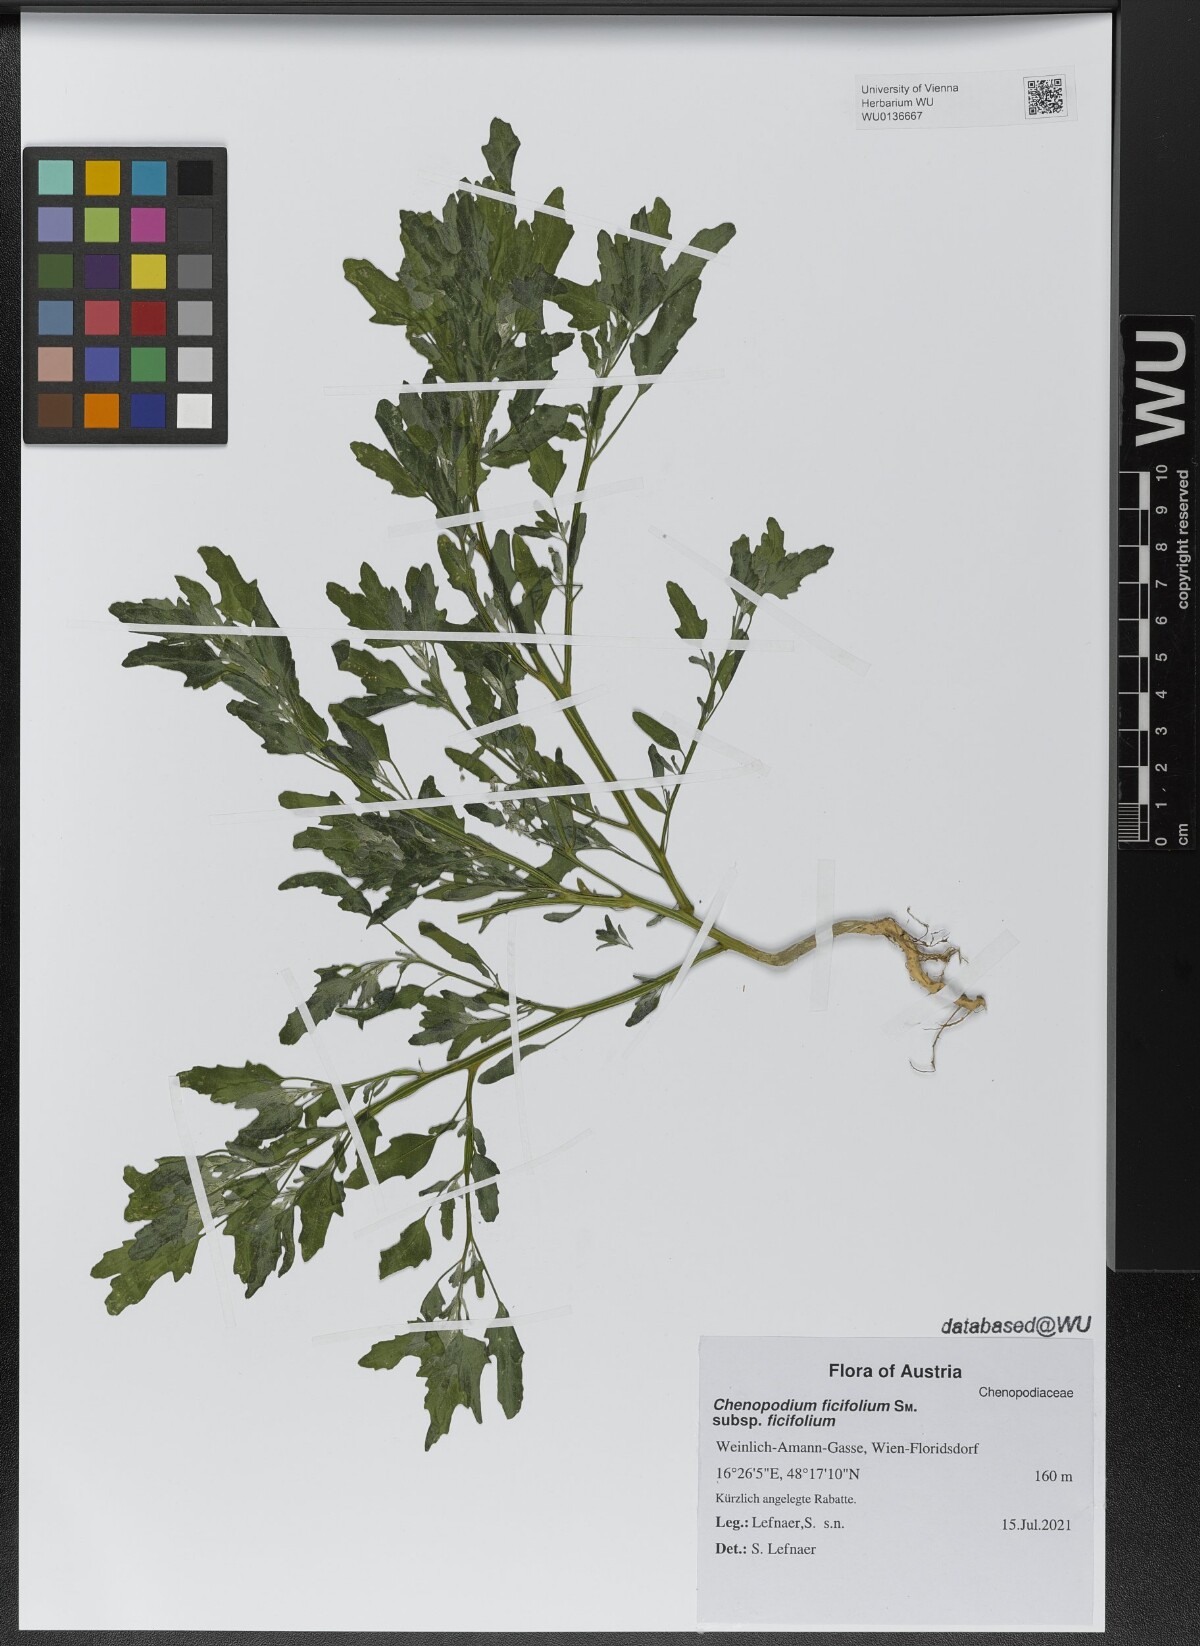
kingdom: Plantae
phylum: Tracheophyta
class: Magnoliopsida
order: Caryophyllales
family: Amaranthaceae
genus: Chenopodium
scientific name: Chenopodium ficifolium
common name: Fig-leaved goosefoot
